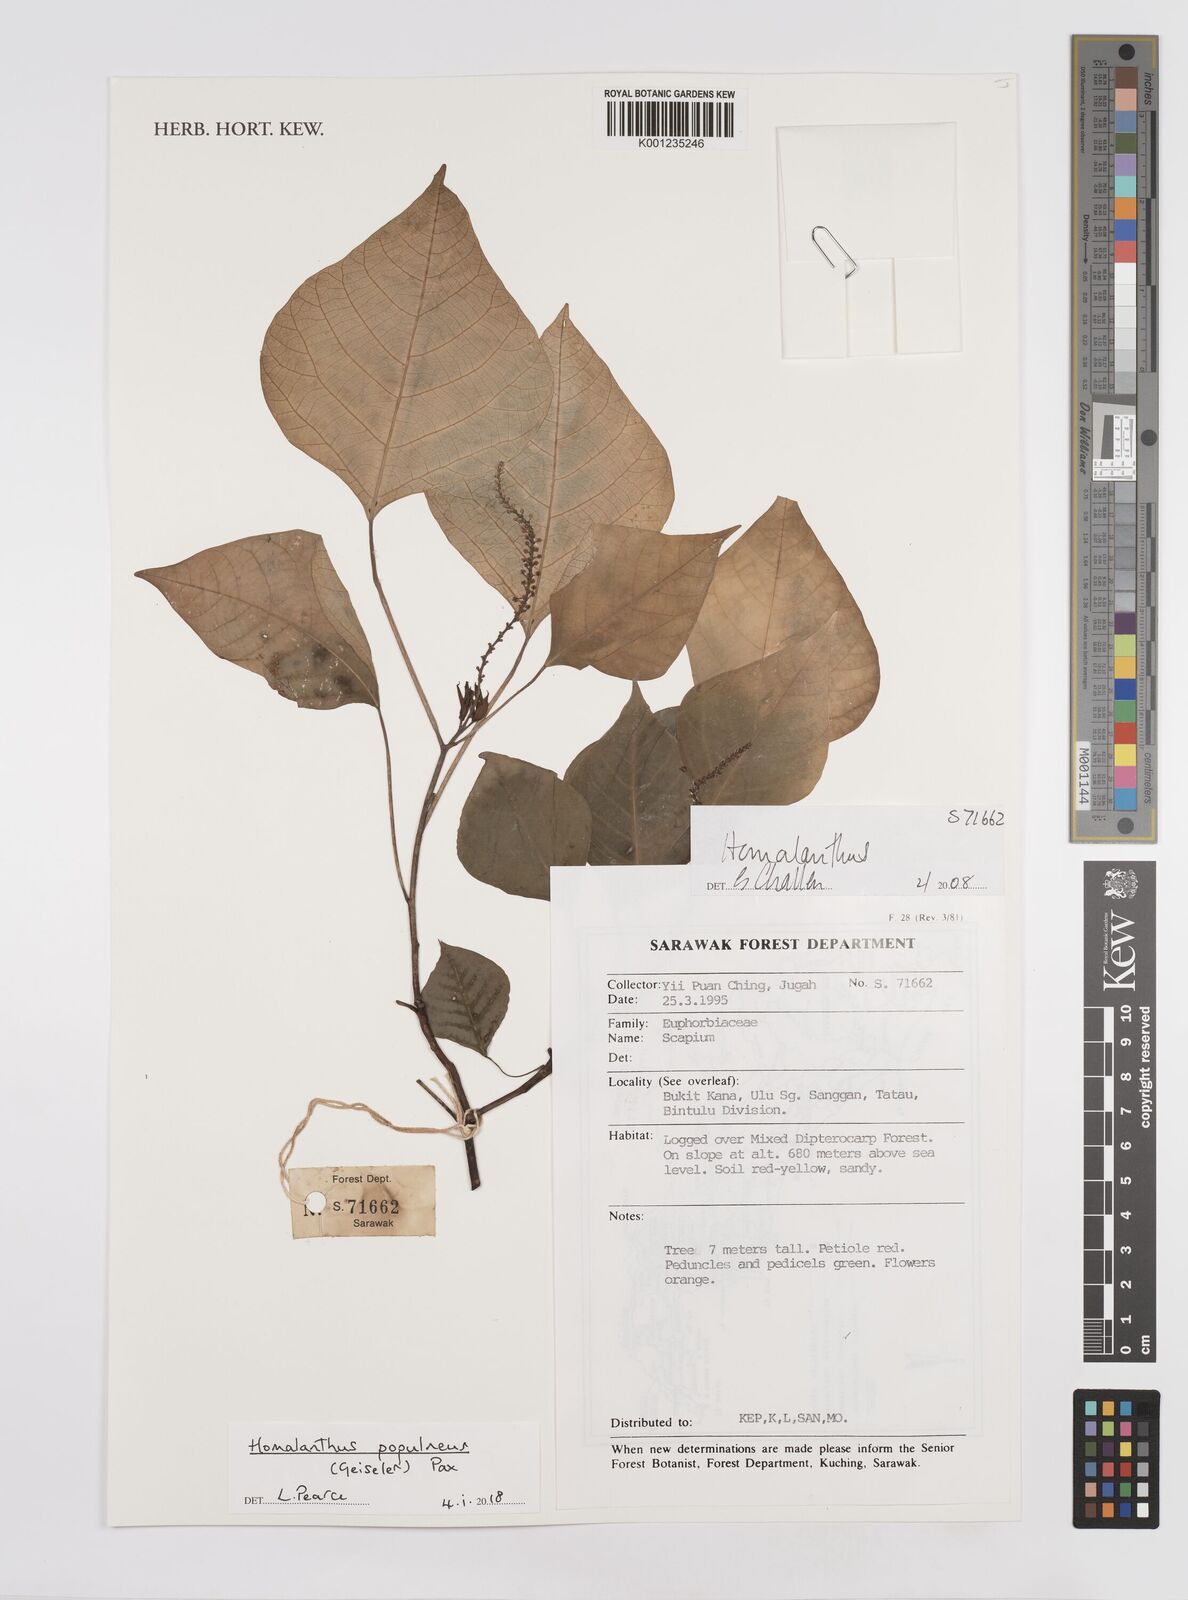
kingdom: Plantae
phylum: Tracheophyta
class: Magnoliopsida
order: Malpighiales
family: Euphorbiaceae
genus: Homalanthus
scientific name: Homalanthus populneus
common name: Spurge
